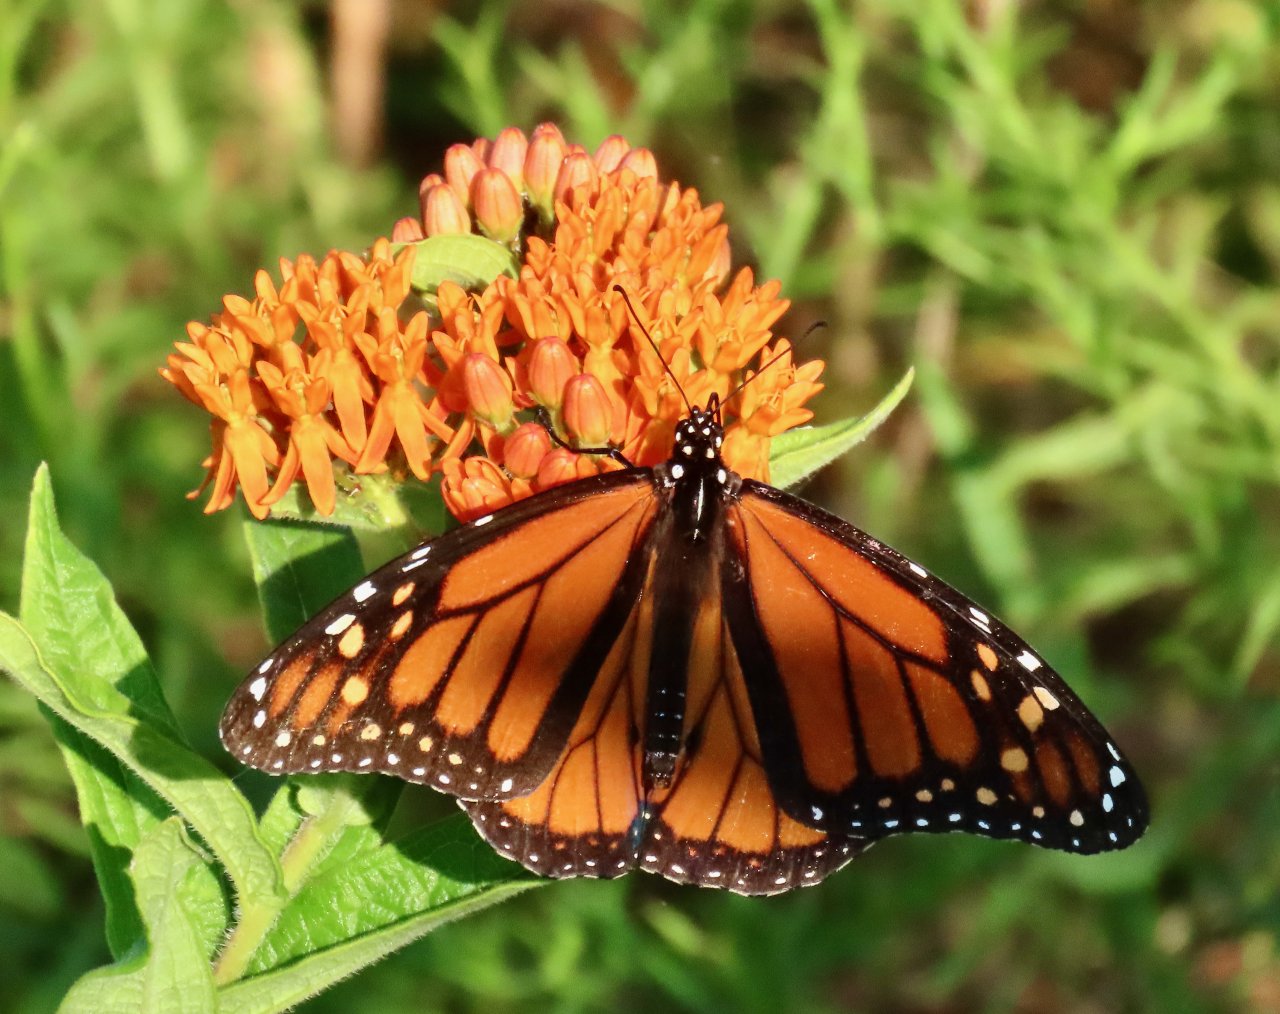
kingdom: Animalia
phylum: Arthropoda
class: Insecta
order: Lepidoptera
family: Nymphalidae
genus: Danaus
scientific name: Danaus plexippus
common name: Monarch
